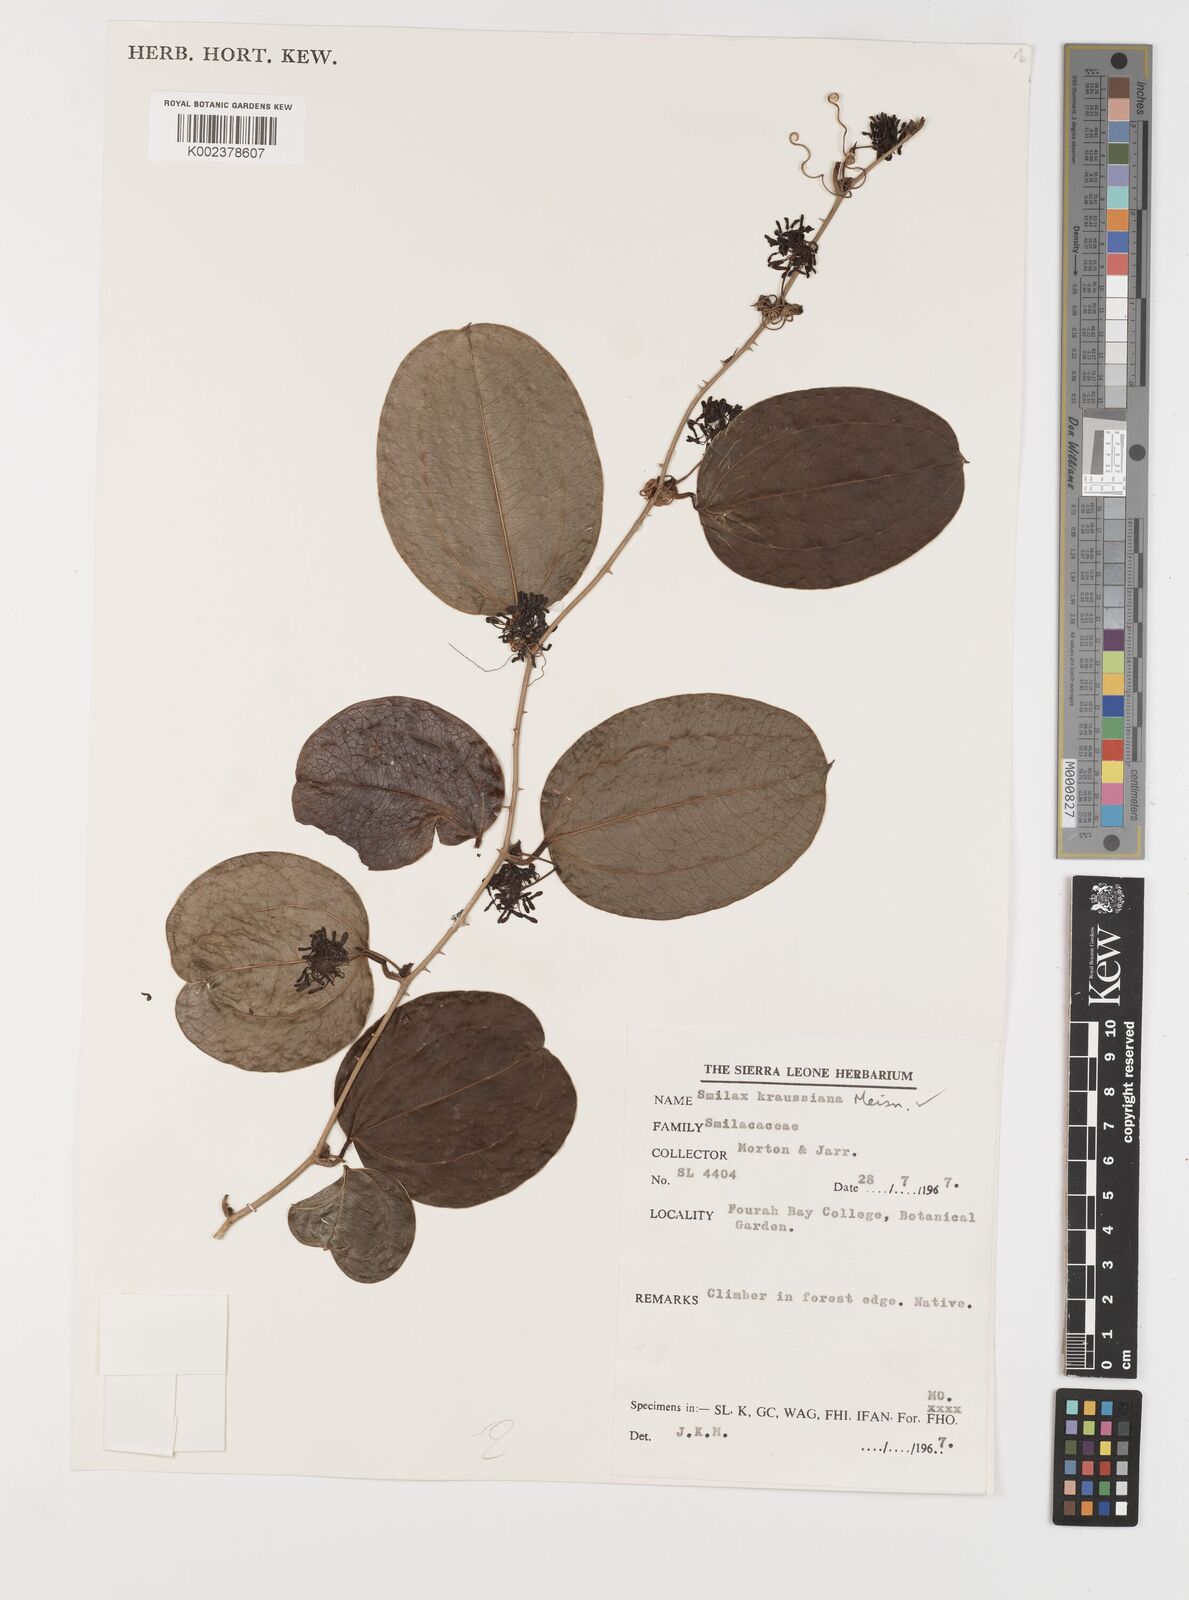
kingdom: Plantae
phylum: Tracheophyta
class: Liliopsida
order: Liliales
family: Smilacaceae
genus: Smilax
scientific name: Smilax anceps
